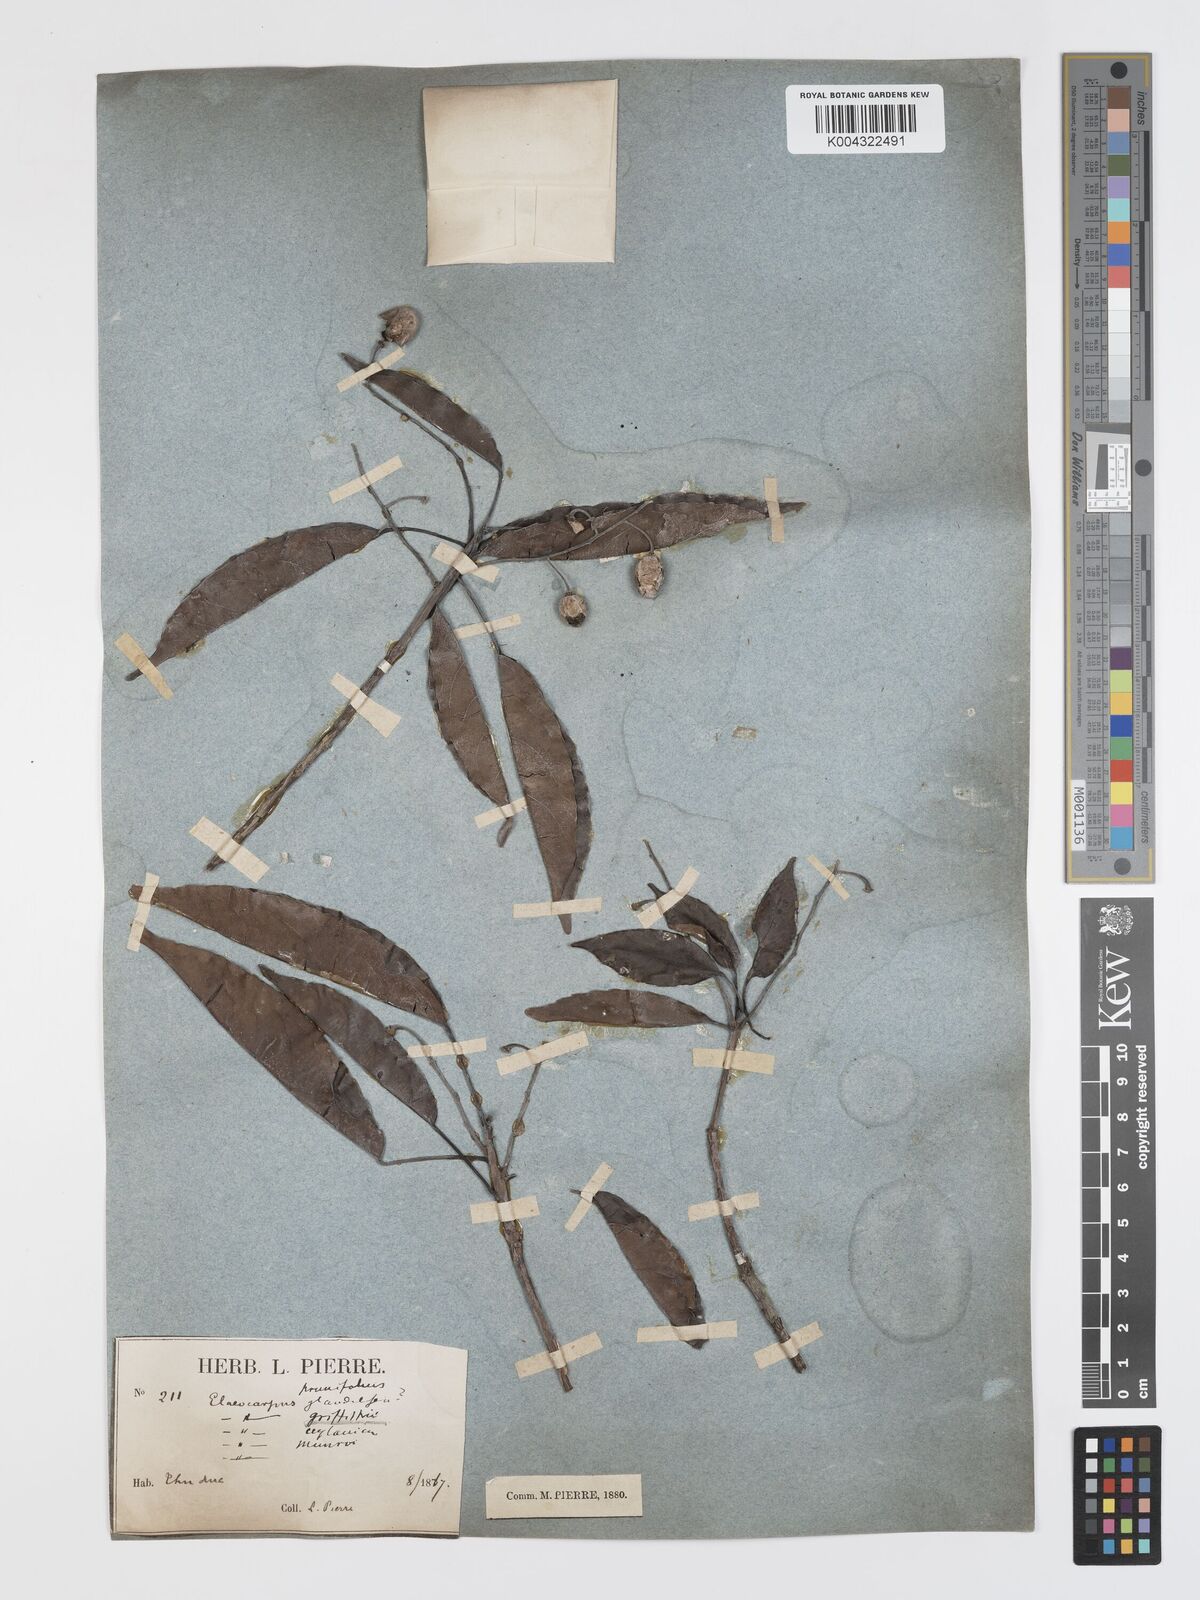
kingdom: Plantae
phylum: Tracheophyta
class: Magnoliopsida
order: Oxalidales
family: Elaeocarpaceae
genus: Elaeocarpus
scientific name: Elaeocarpus griffithii
